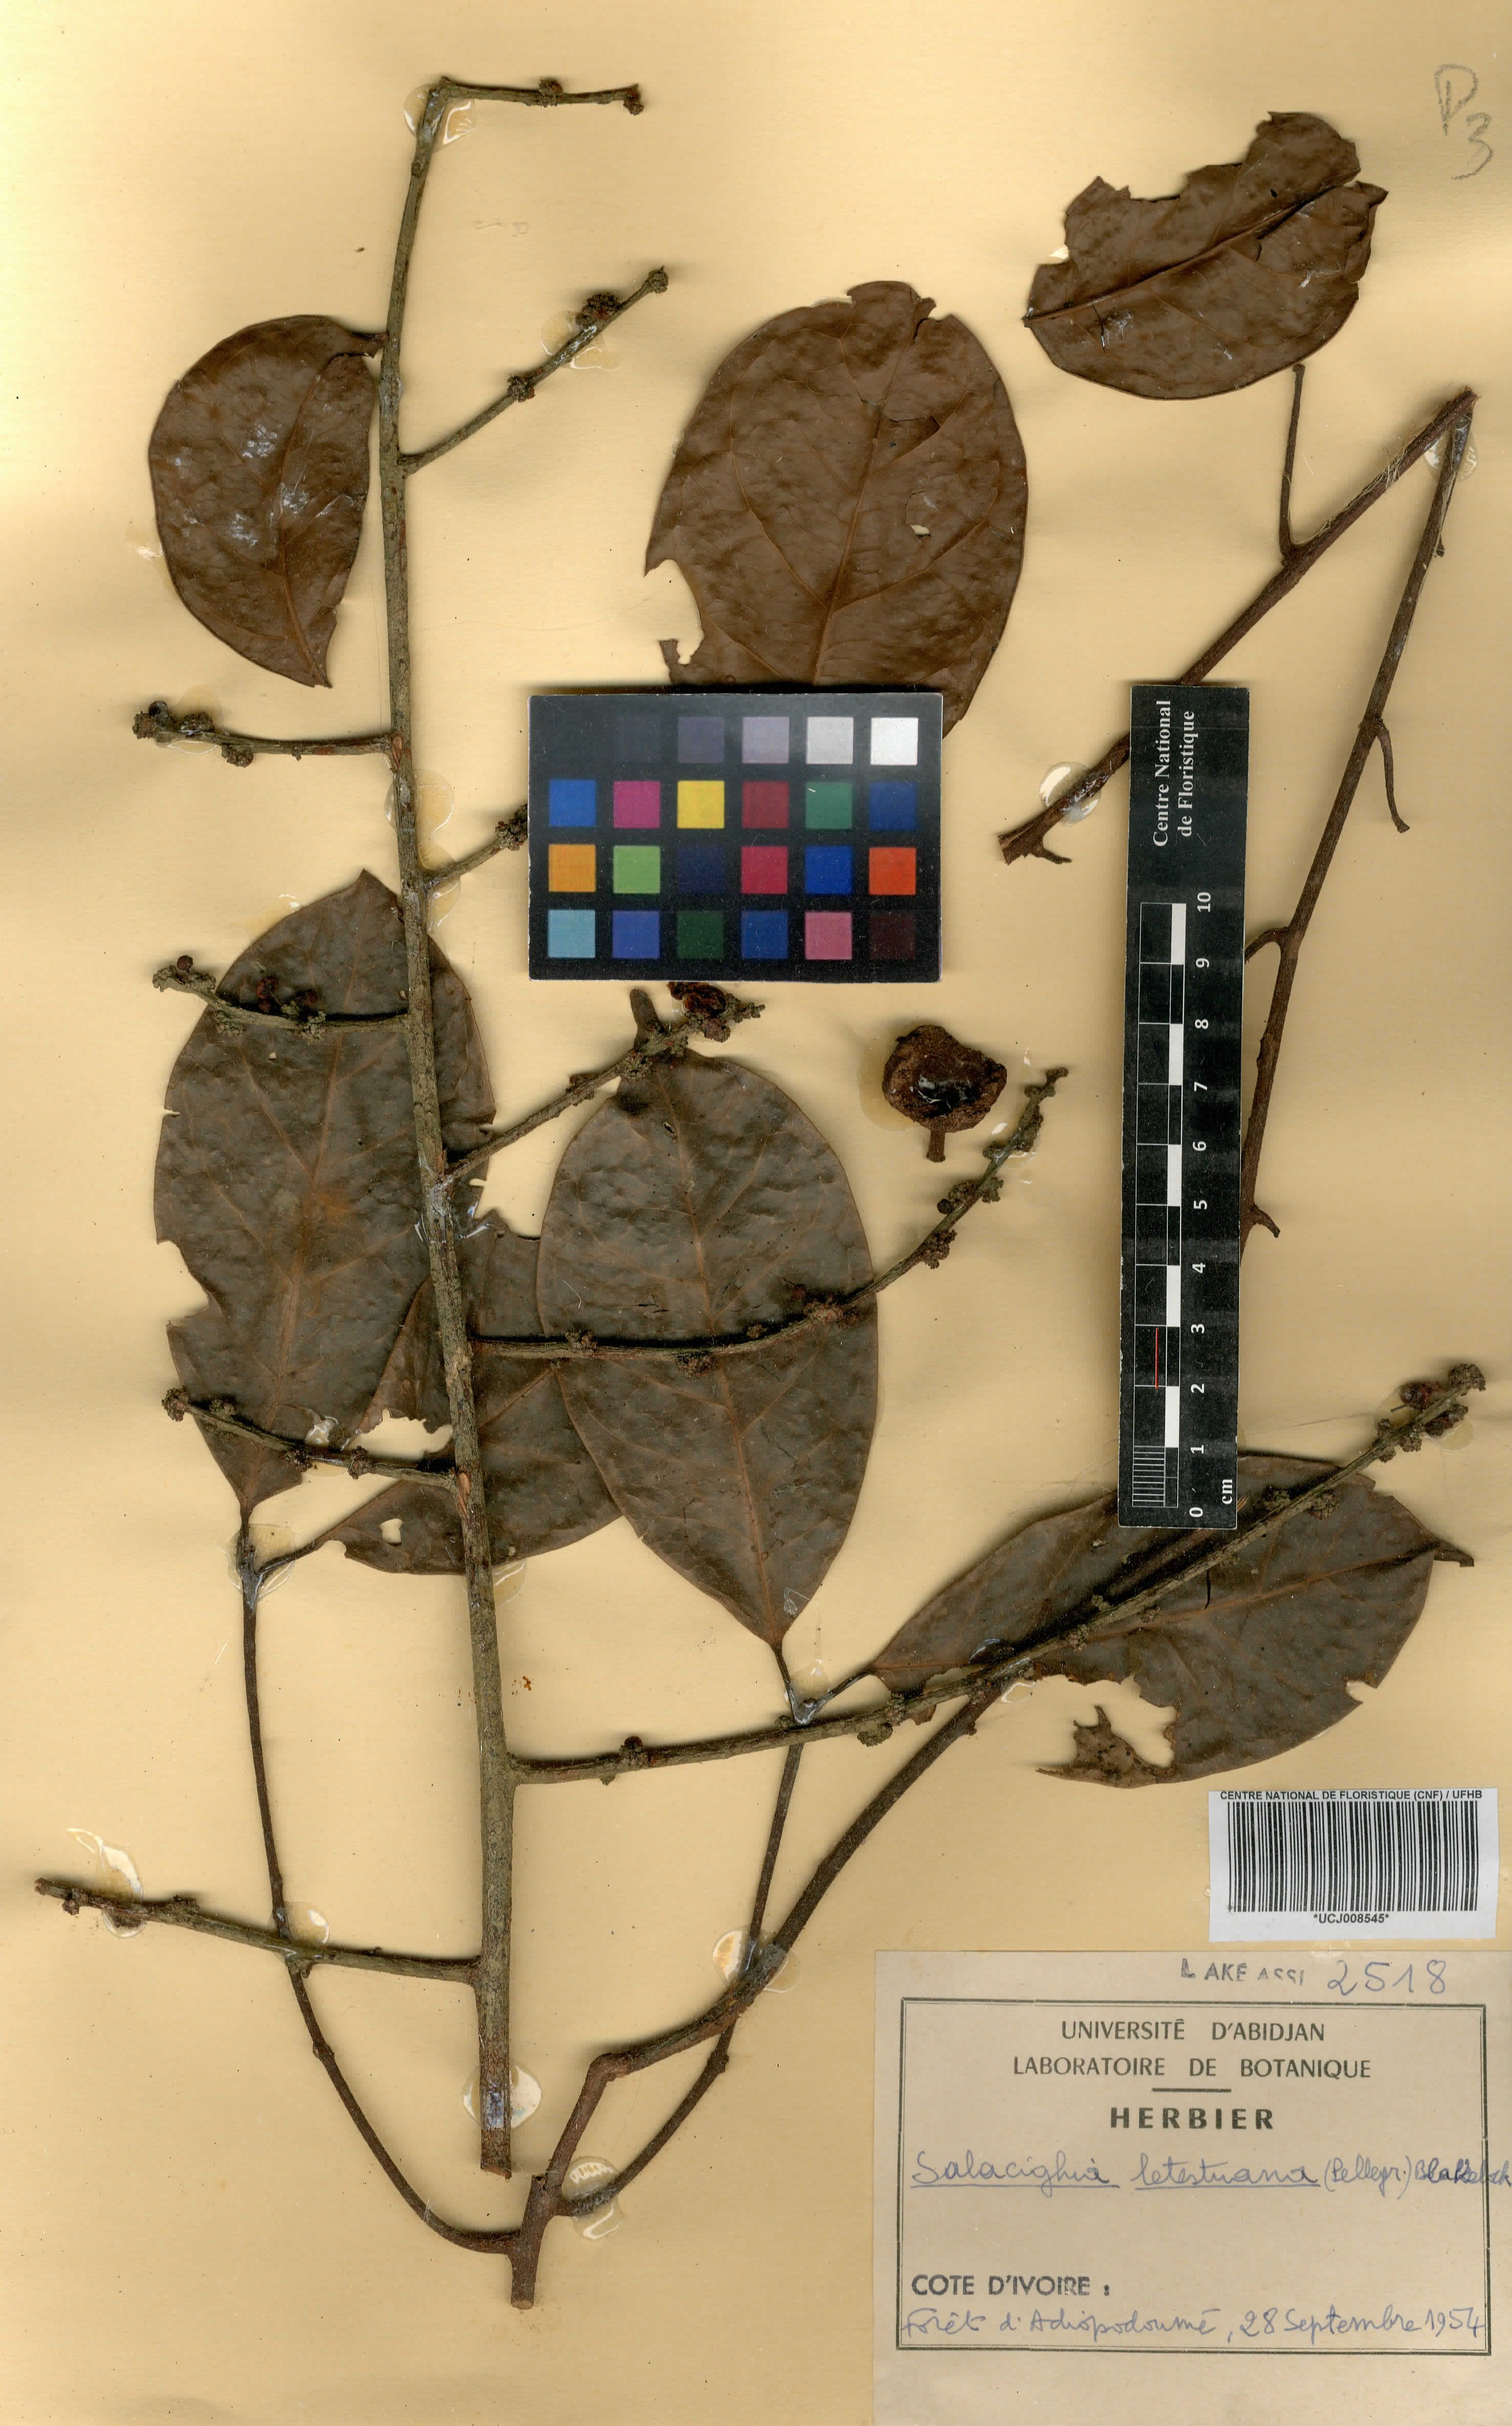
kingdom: Plantae
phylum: Tracheophyta
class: Magnoliopsida
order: Celastrales
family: Celastraceae
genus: Salacighia
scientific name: Salacighia letestuana
